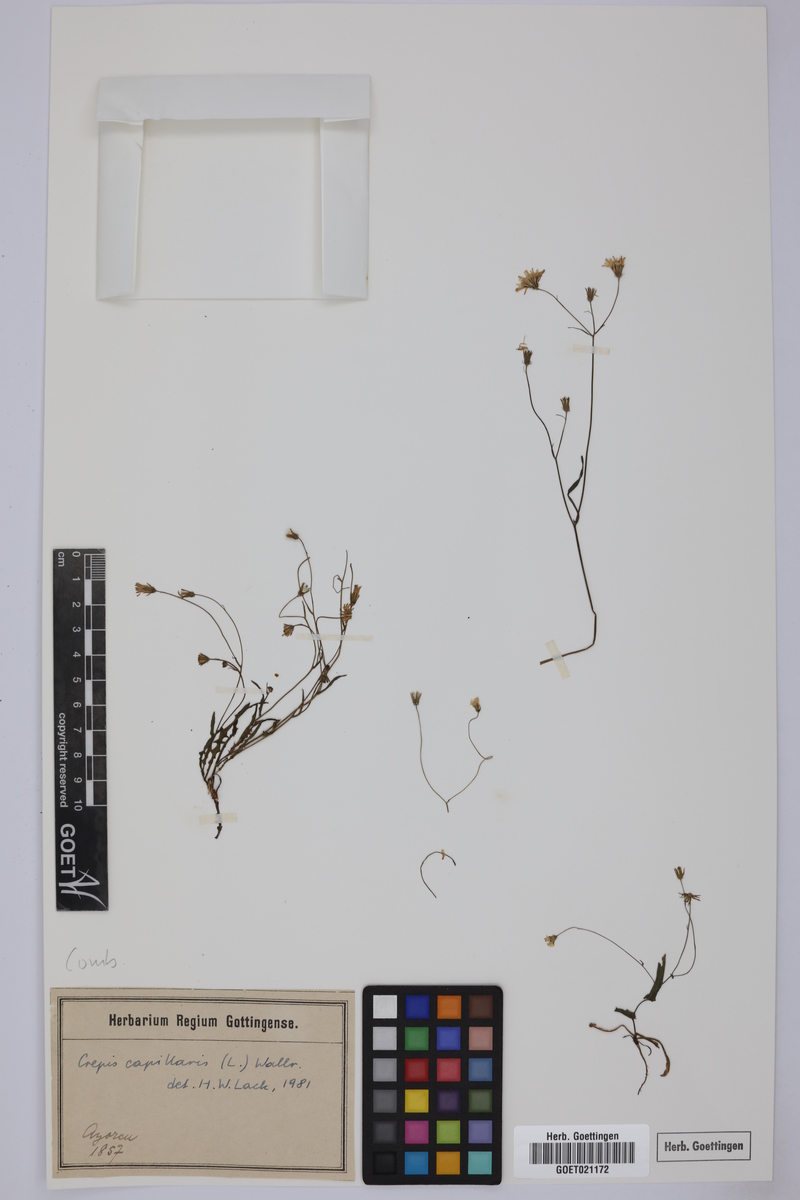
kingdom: Plantae
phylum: Tracheophyta
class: Magnoliopsida
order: Asterales
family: Asteraceae
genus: Crepis
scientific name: Crepis capillaris
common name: Smooth hawksbeard
